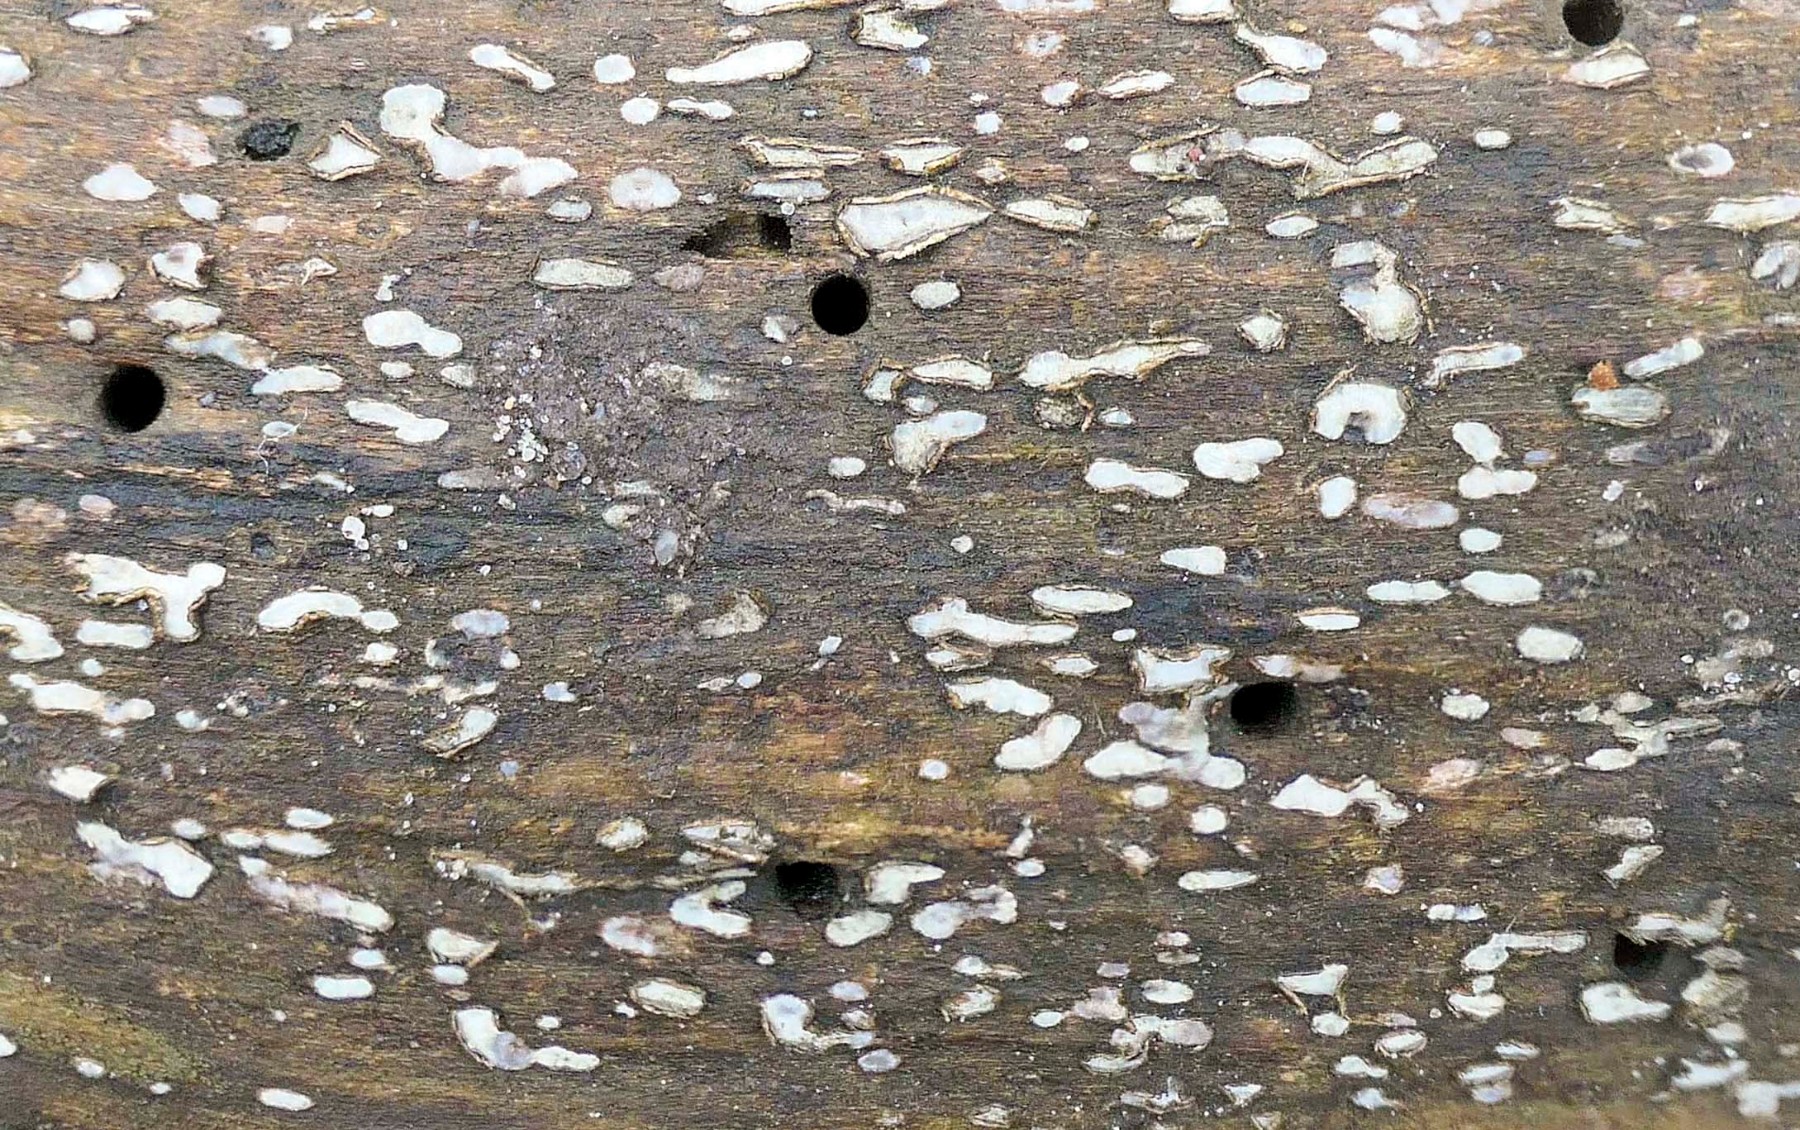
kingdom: Fungi
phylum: Ascomycota
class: Leotiomycetes
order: Chaetomellales
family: Marthamycetaceae
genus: Propolis
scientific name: Propolis farinosa
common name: almindelig vedsprængerskive
